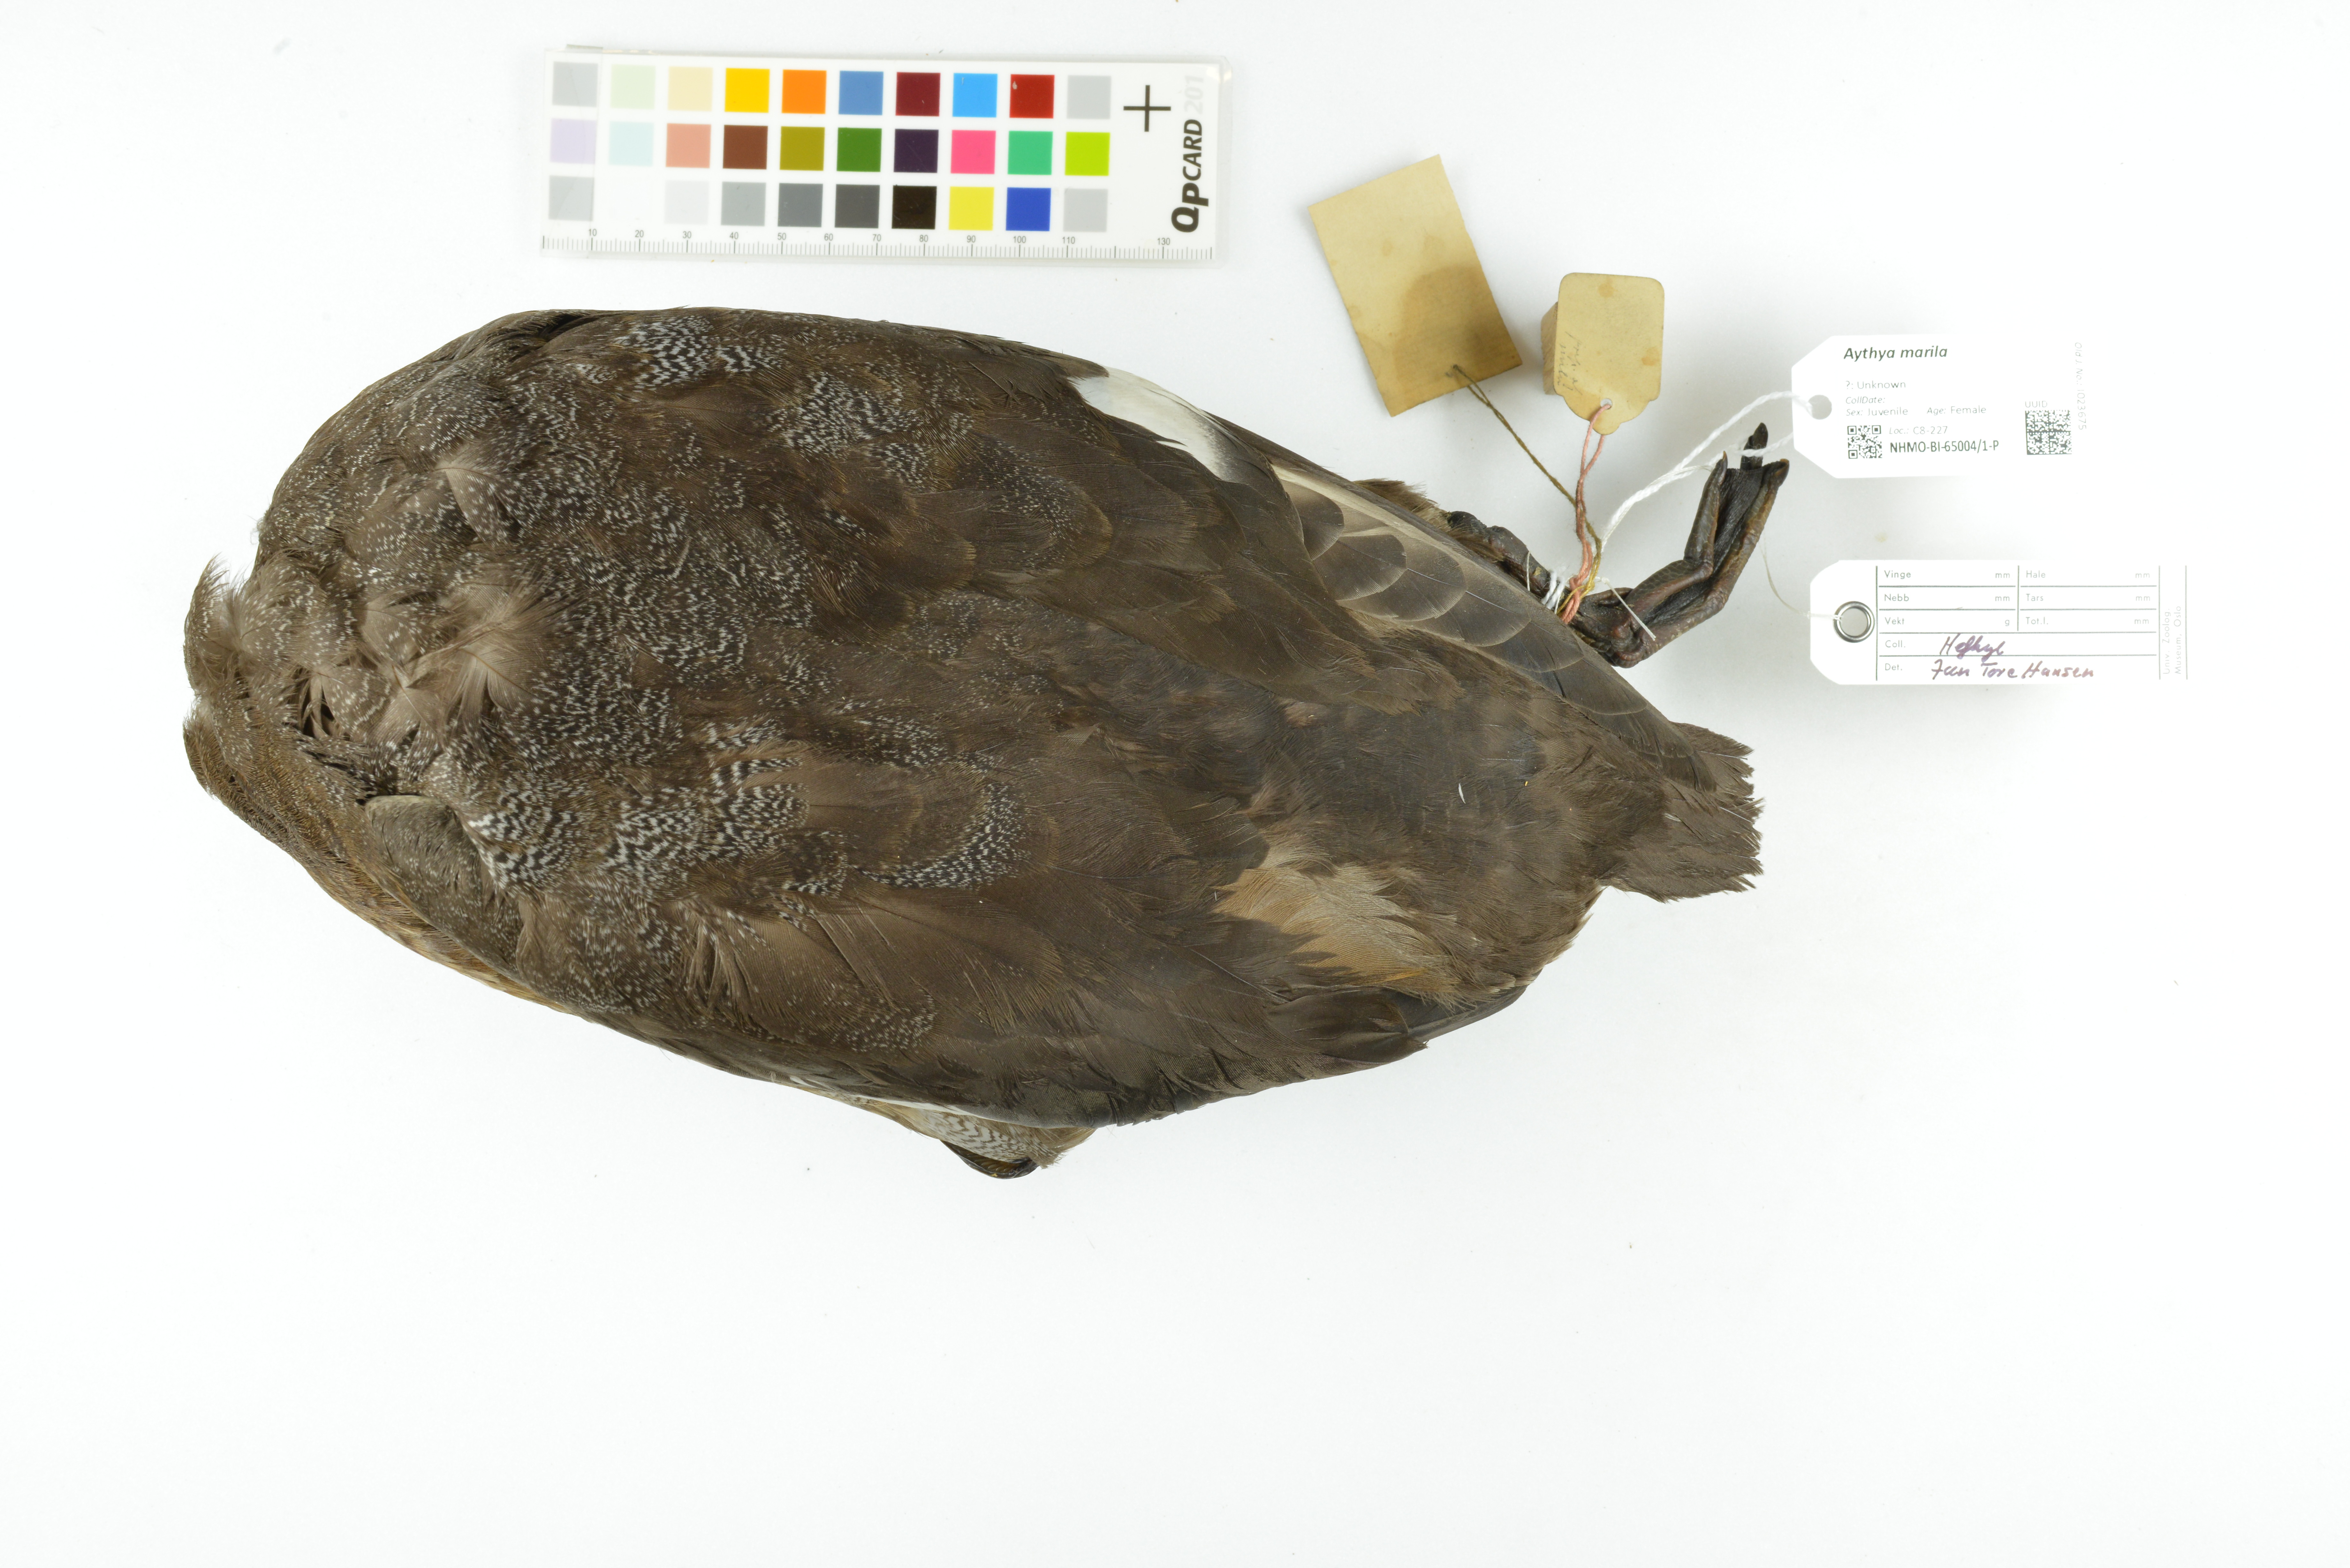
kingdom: Animalia
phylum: Chordata
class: Aves
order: Anseriformes
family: Anatidae
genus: Aythya
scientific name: Aythya marila
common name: Greater scaup
